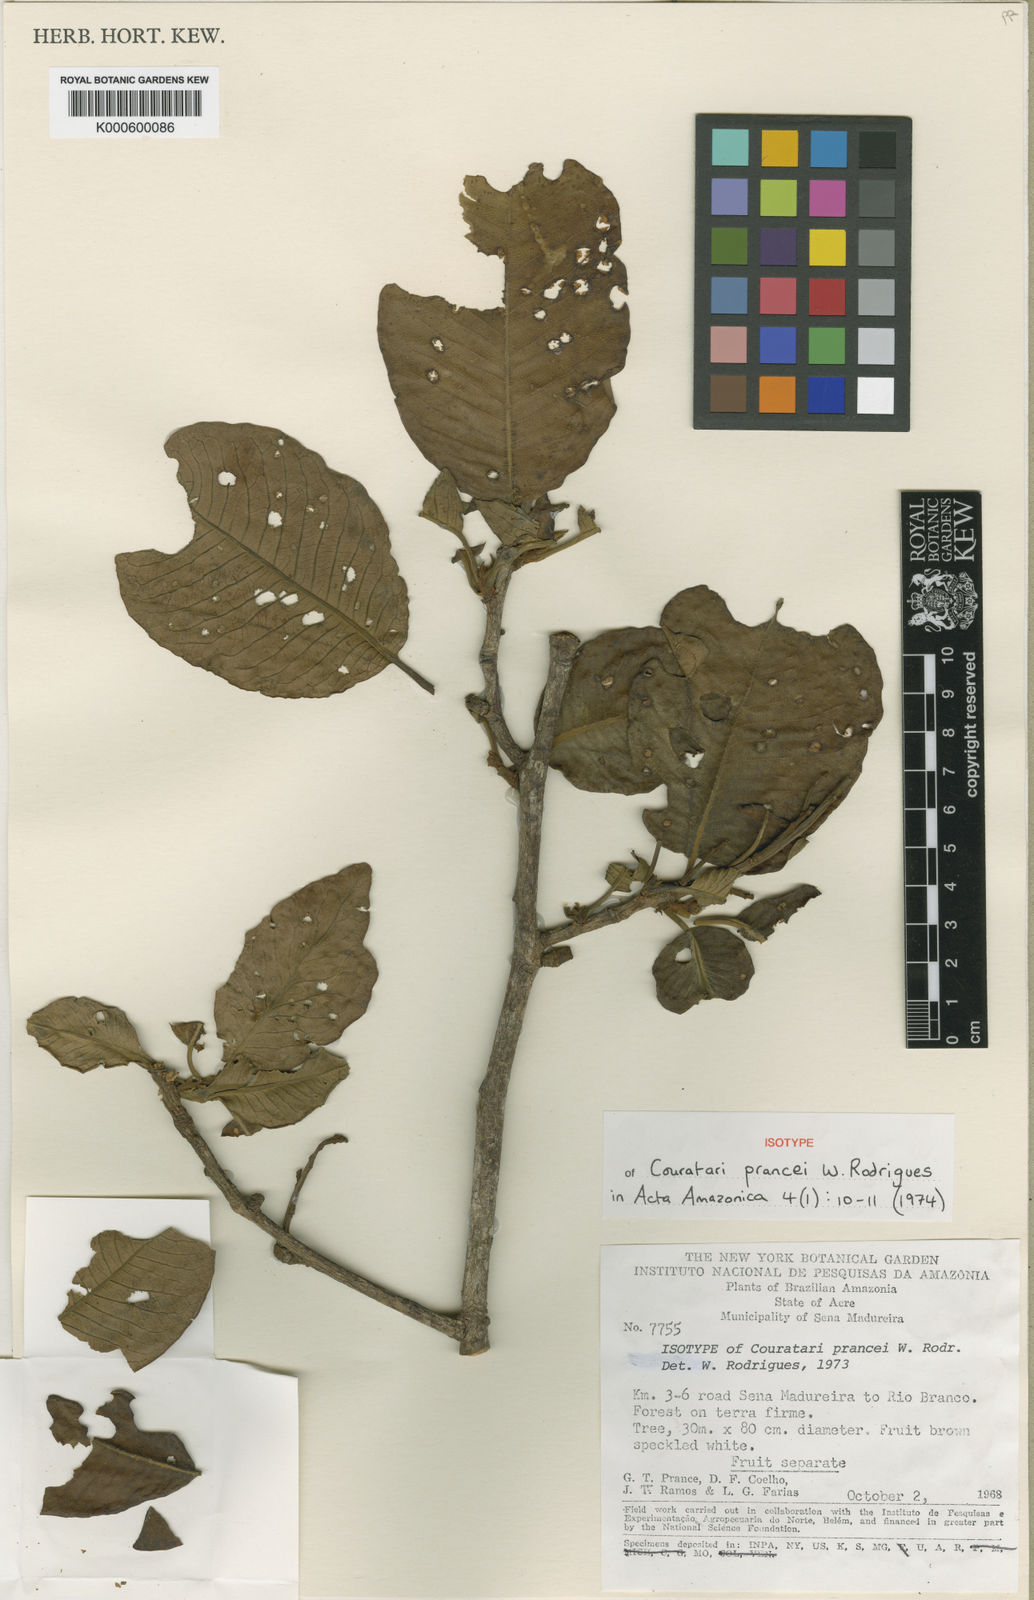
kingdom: Plantae
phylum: Tracheophyta
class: Magnoliopsida
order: Ericales
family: Lecythidaceae
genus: Couratari
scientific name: Couratari prancei
